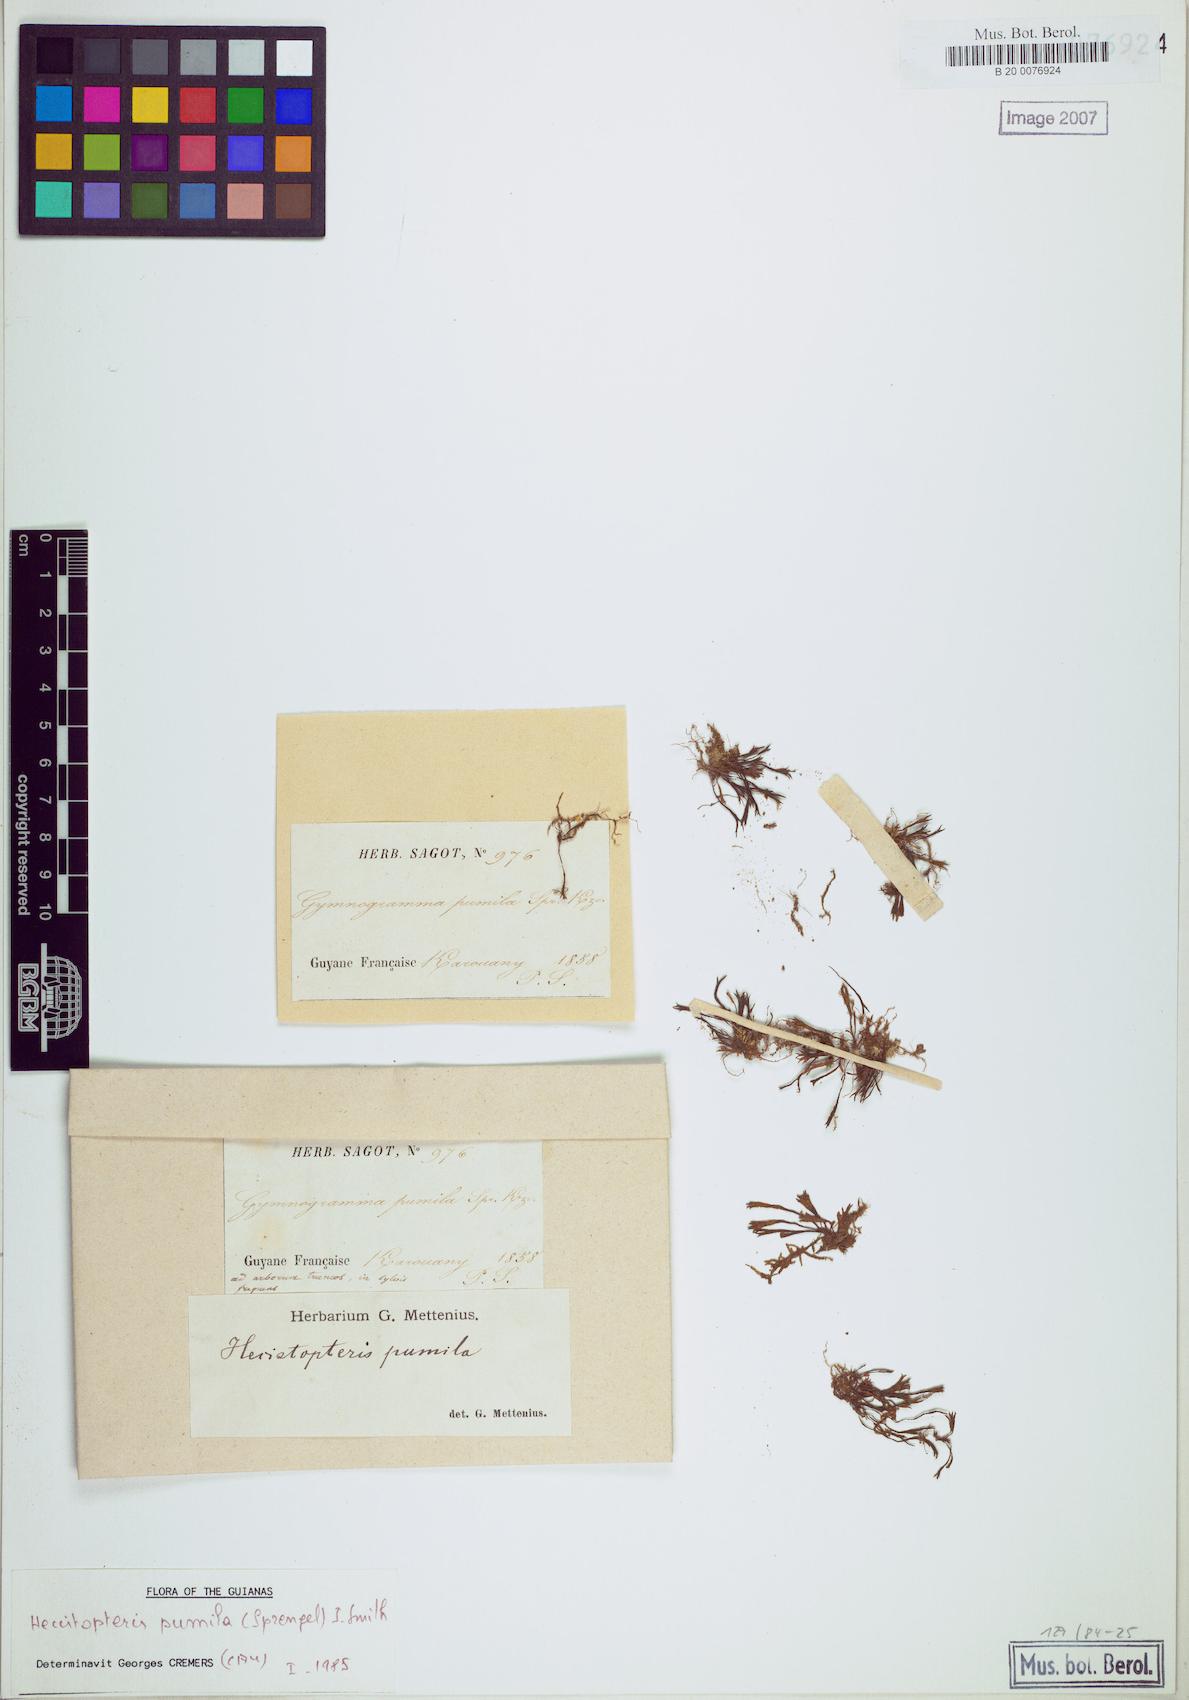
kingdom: Plantae
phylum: Tracheophyta
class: Polypodiopsida
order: Polypodiales
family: Pteridaceae
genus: Hecistopteris
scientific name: Hecistopteris pumila
